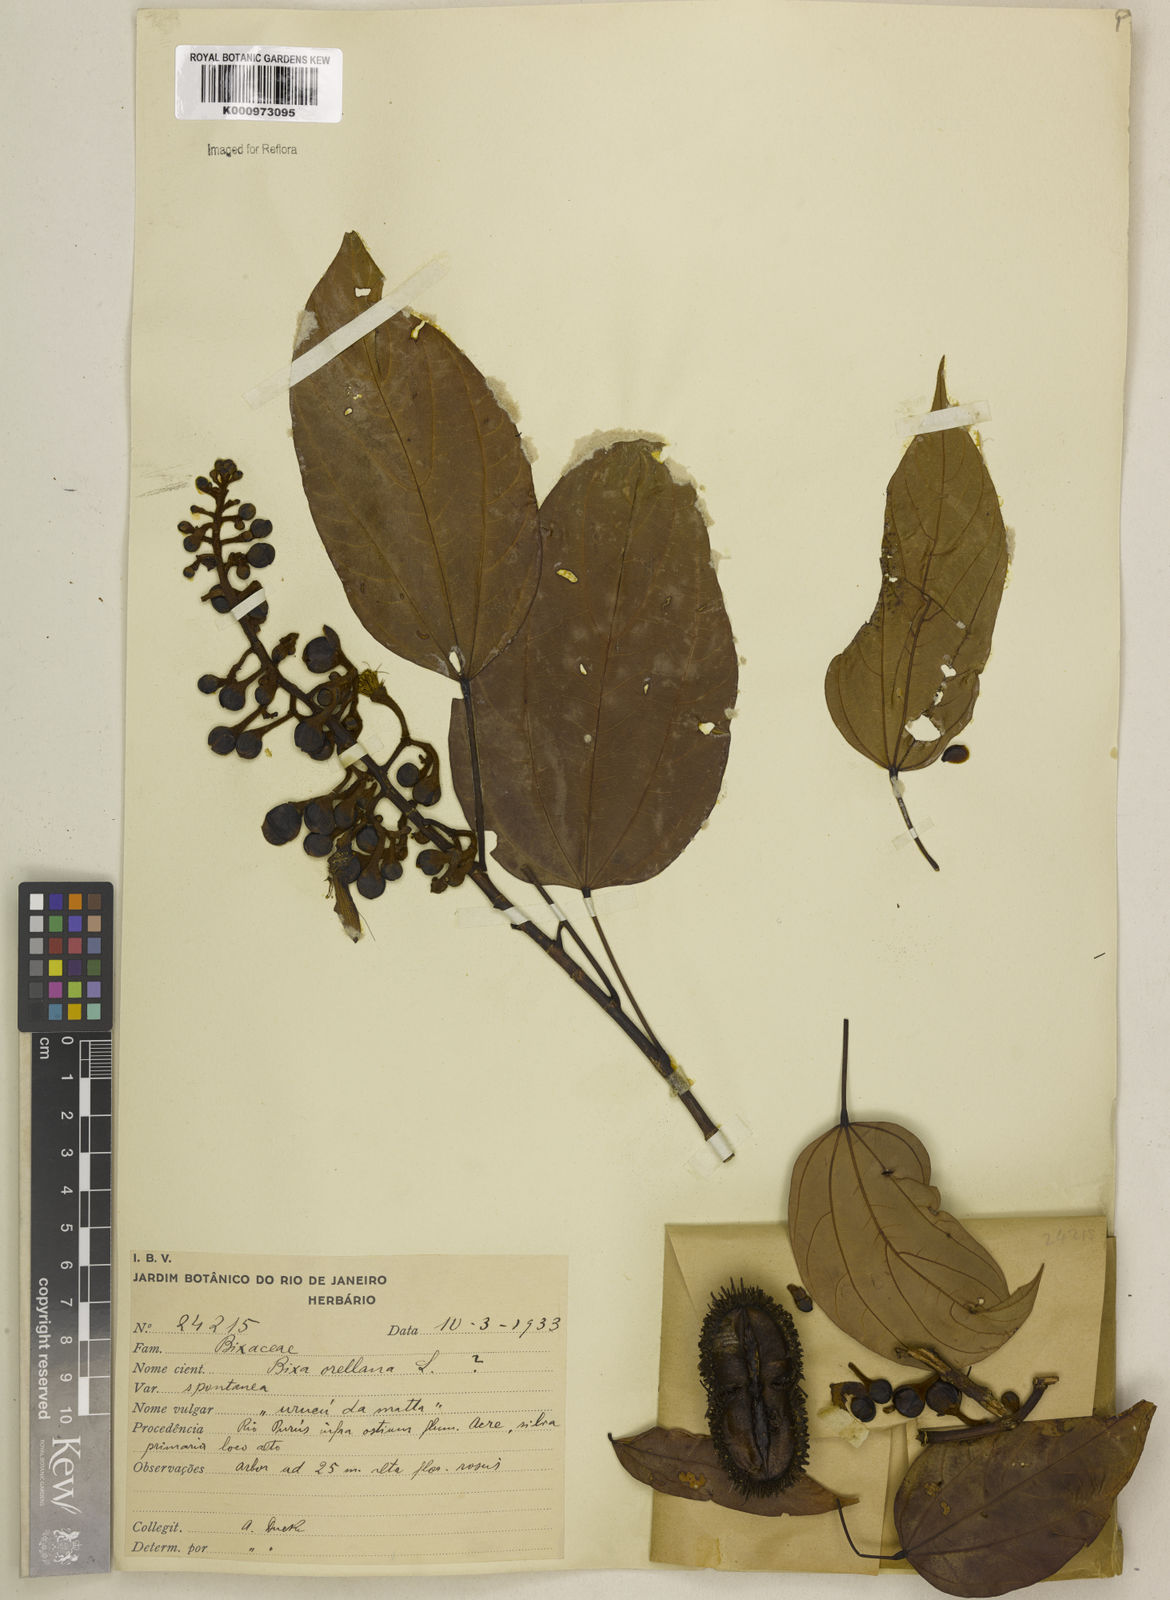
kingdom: Plantae
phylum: Tracheophyta
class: Magnoliopsida
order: Malvales
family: Bixaceae
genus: Bixa
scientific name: Bixa excelsa
